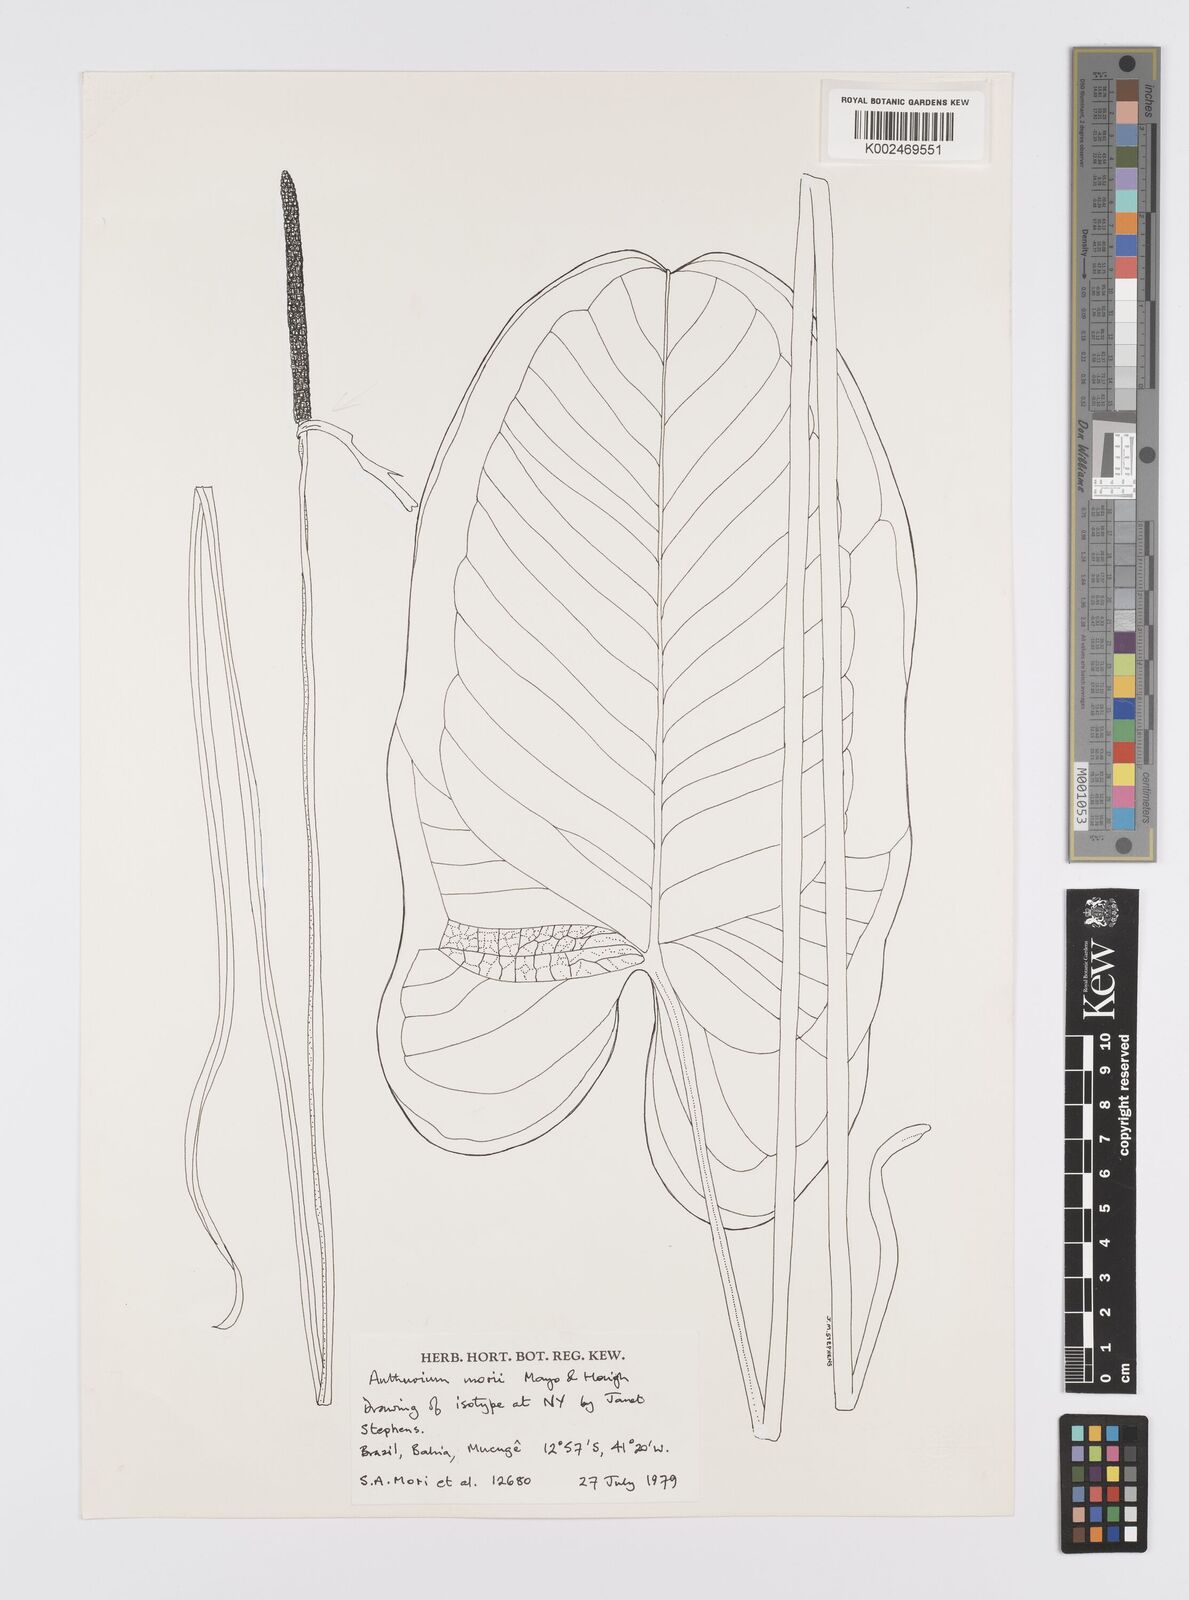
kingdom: Plantae
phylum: Tracheophyta
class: Liliopsida
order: Alismatales
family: Araceae
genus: Anthurium
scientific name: Anthurium morii
